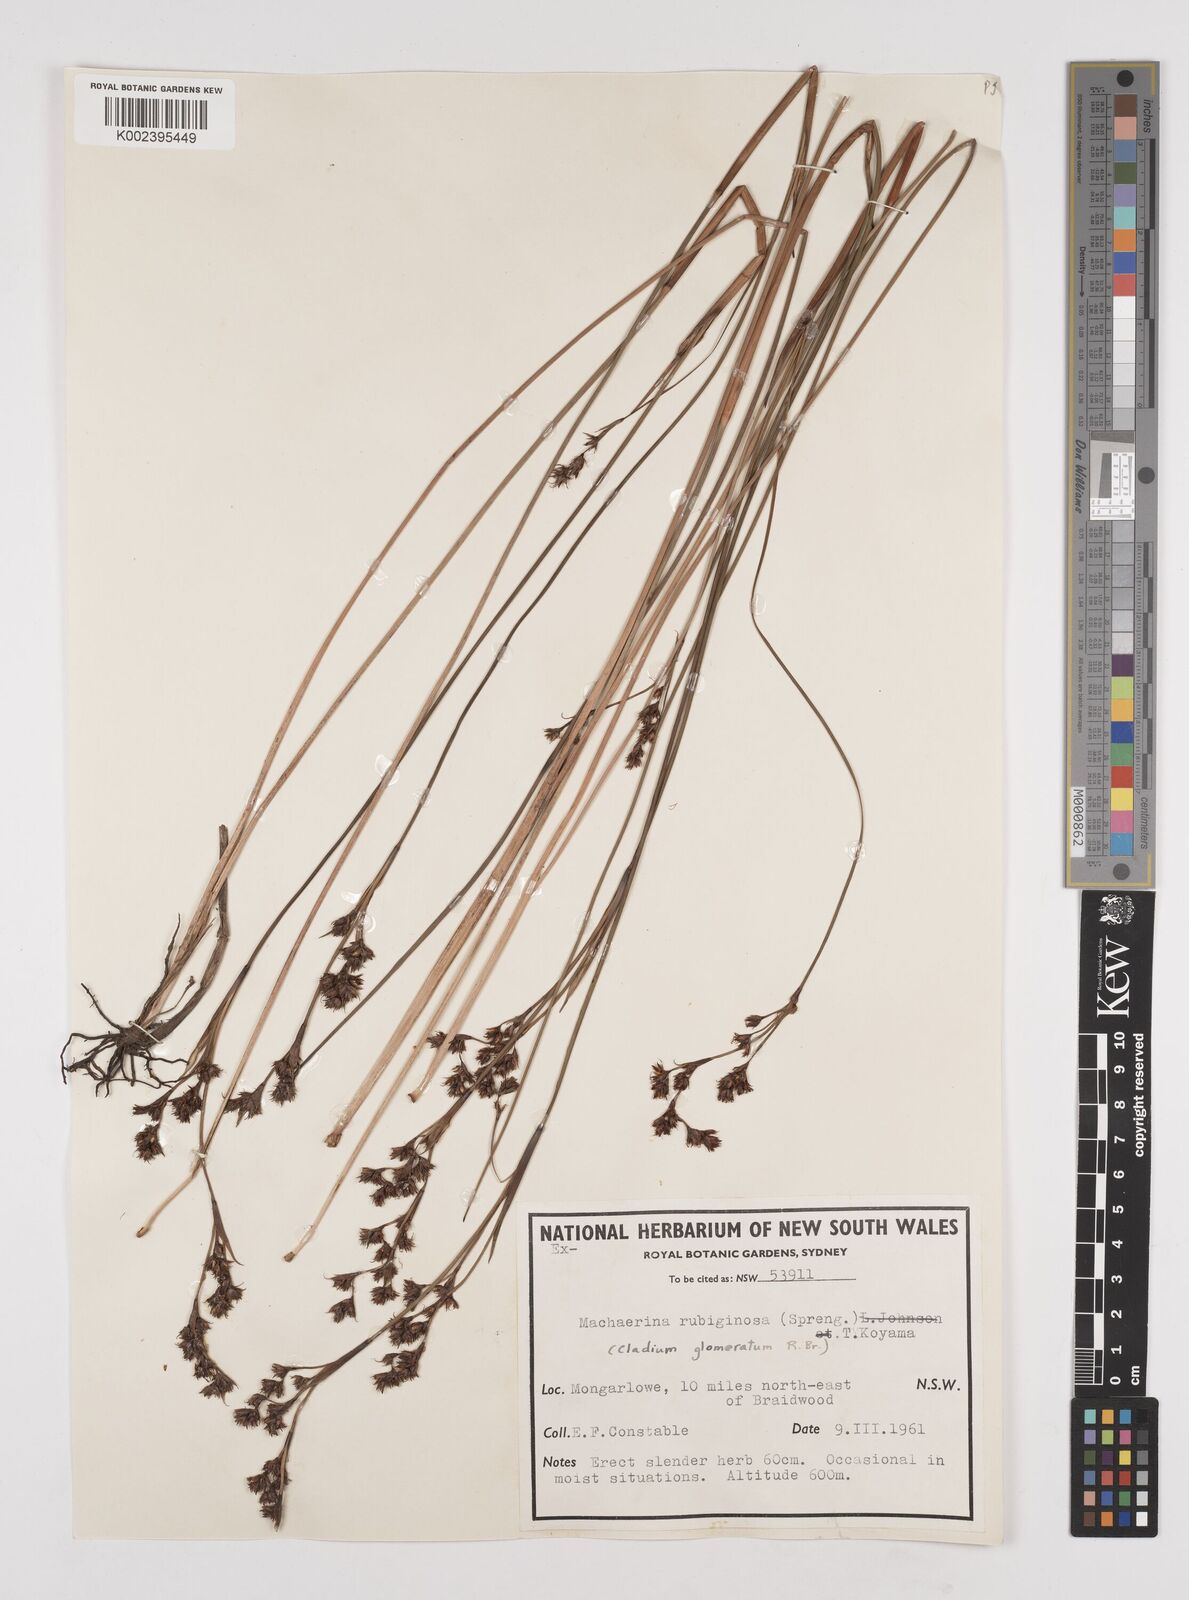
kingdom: Plantae
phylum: Tracheophyta
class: Liliopsida
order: Poales
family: Cyperaceae
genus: Machaerina
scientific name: Machaerina
